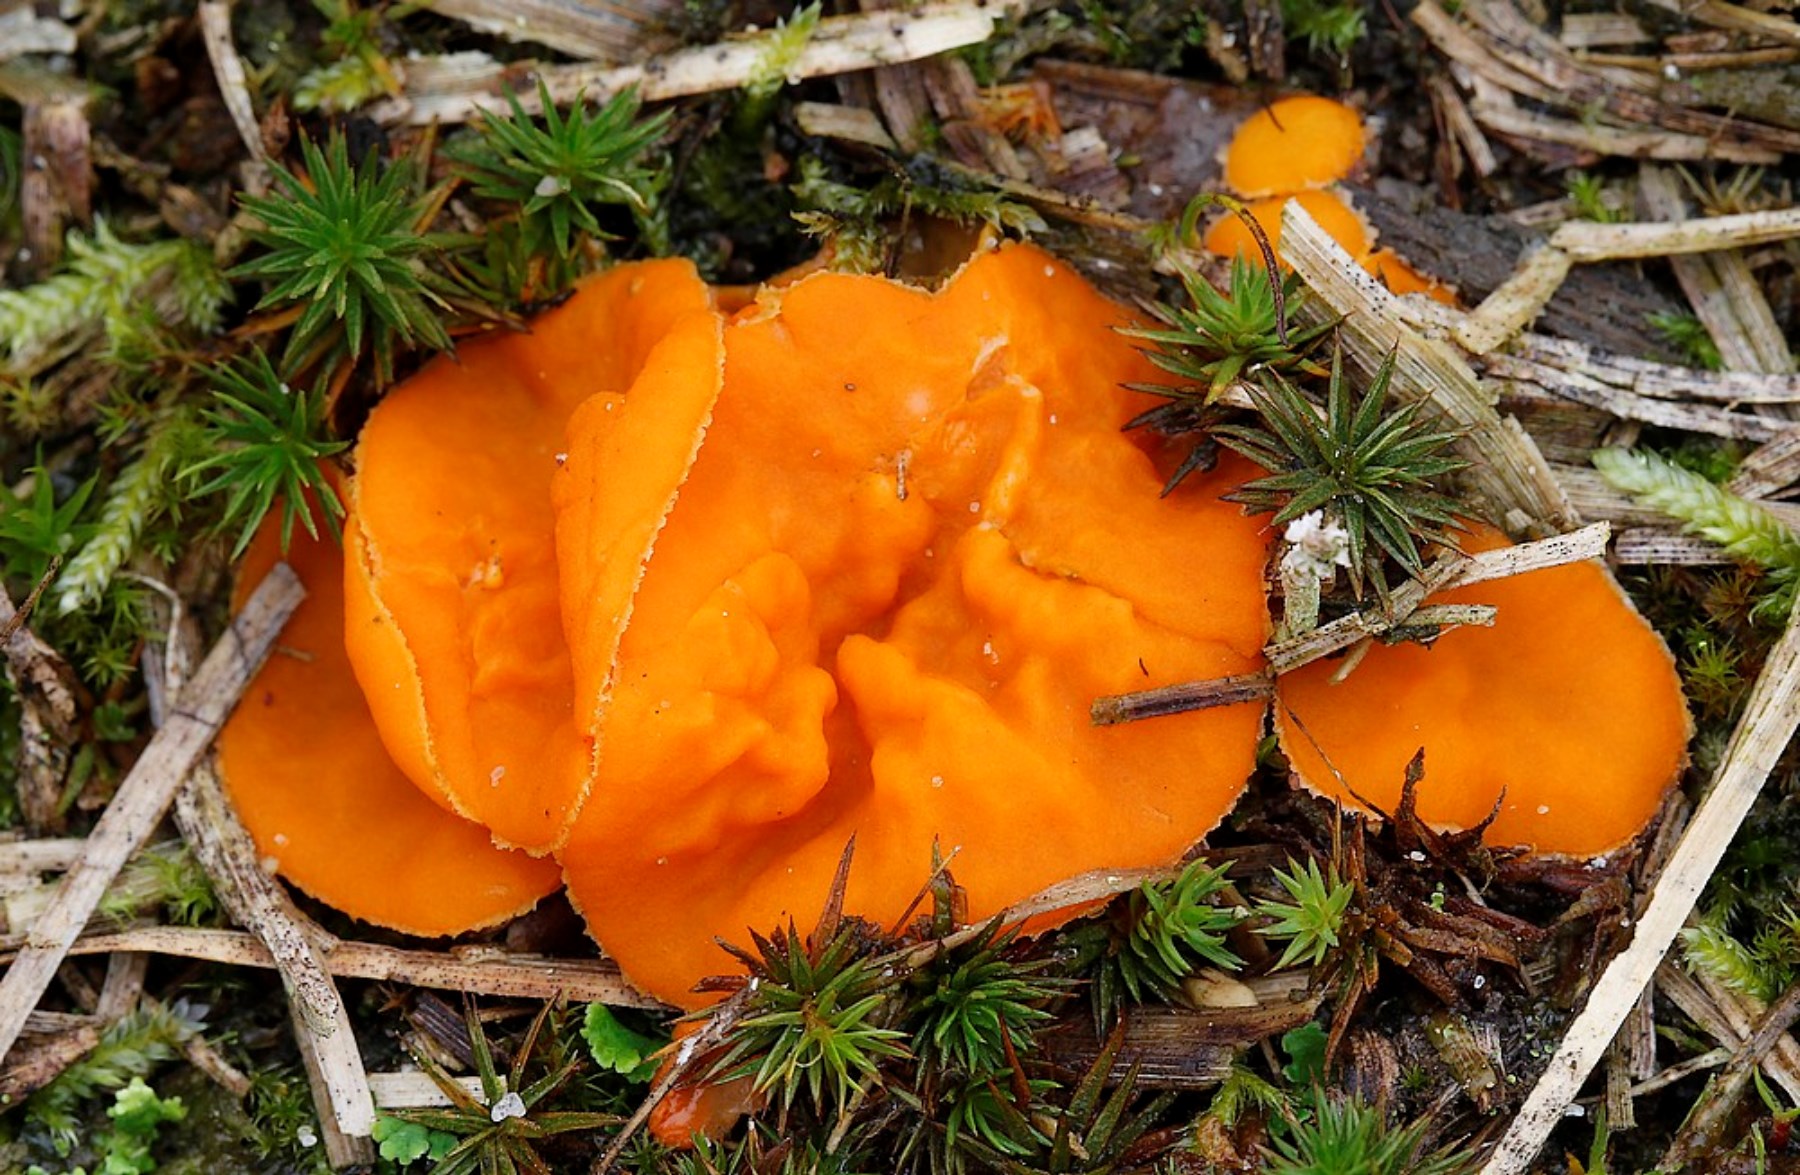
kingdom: Fungi
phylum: Ascomycota
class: Pezizomycetes
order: Pezizales
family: Pyronemataceae
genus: Neottiella
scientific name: Neottiella
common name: mosbæger
